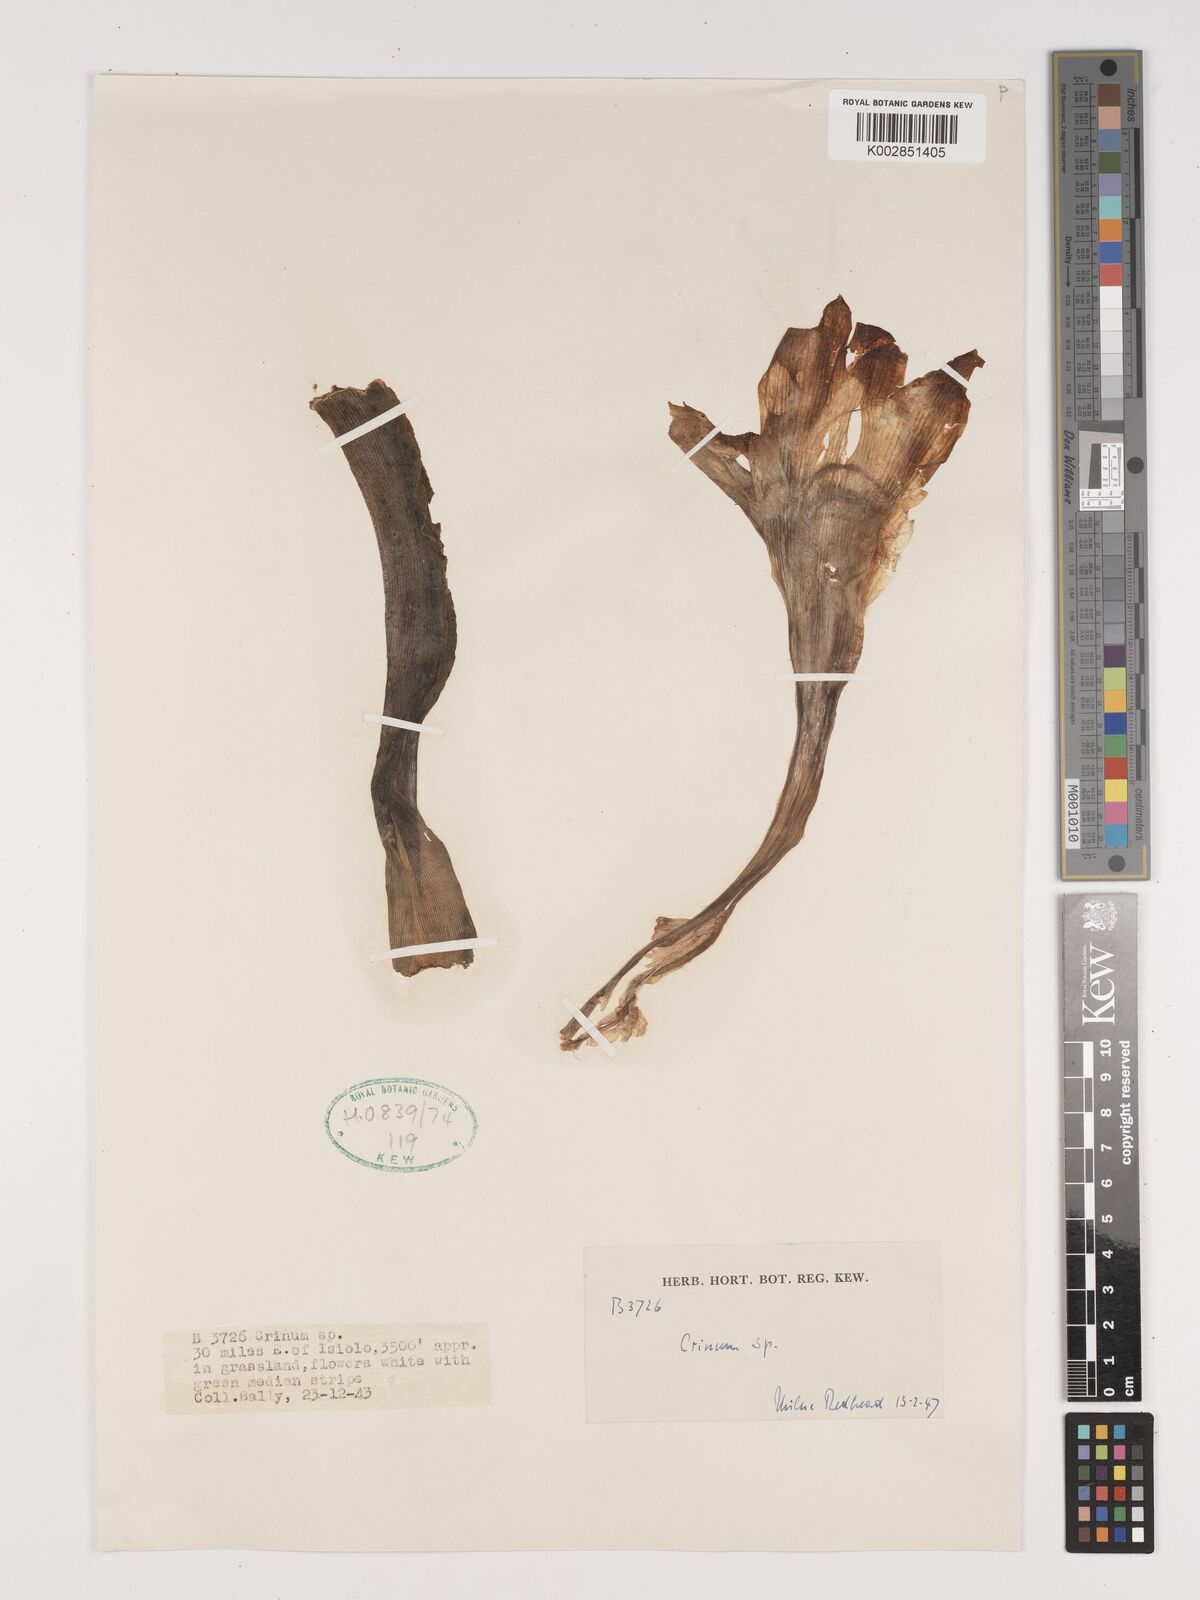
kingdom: Plantae
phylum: Tracheophyta
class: Liliopsida
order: Asparagales
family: Amaryllidaceae
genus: Crinum
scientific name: Crinum
